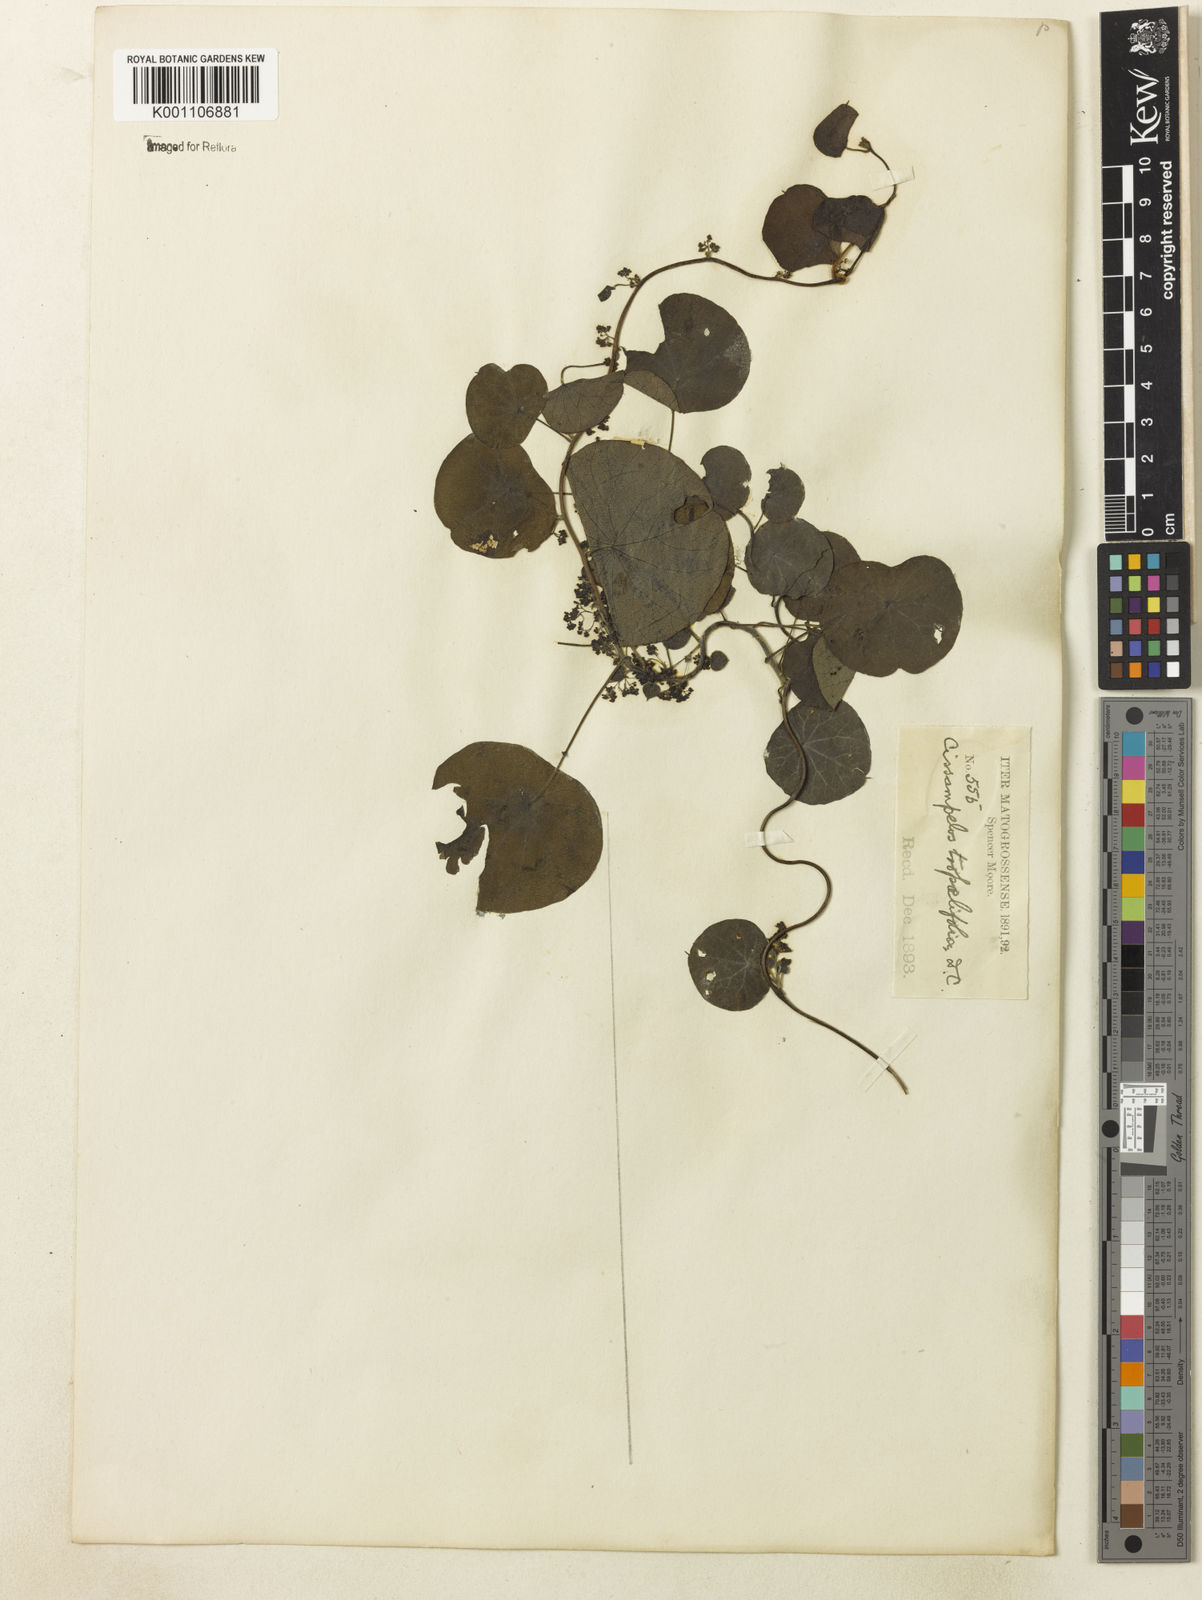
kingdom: Plantae
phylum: Tracheophyta
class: Magnoliopsida
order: Ranunculales
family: Menispermaceae
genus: Cissampelos
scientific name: Cissampelos tropaeolifolia
